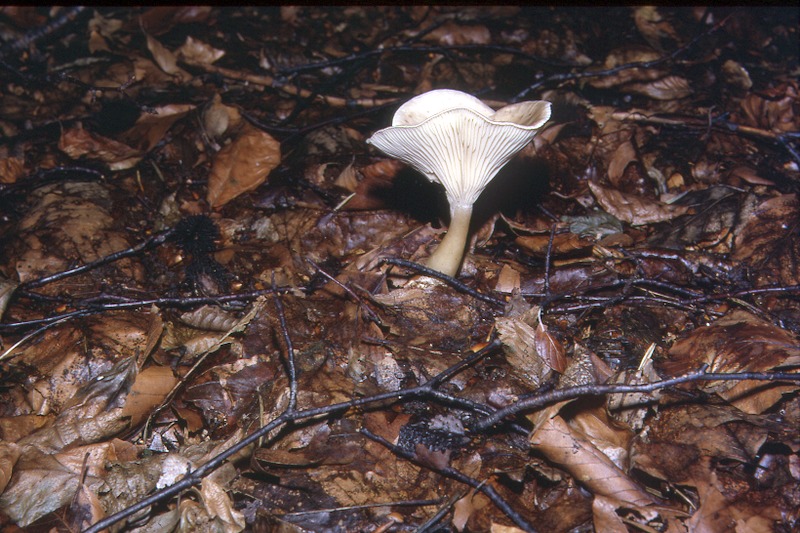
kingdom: Fungi
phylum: Basidiomycota
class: Agaricomycetes
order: Agaricales
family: Hygrophoraceae
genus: Ampulloclitocybe
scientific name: Ampulloclitocybe clavipes
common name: Club foot
